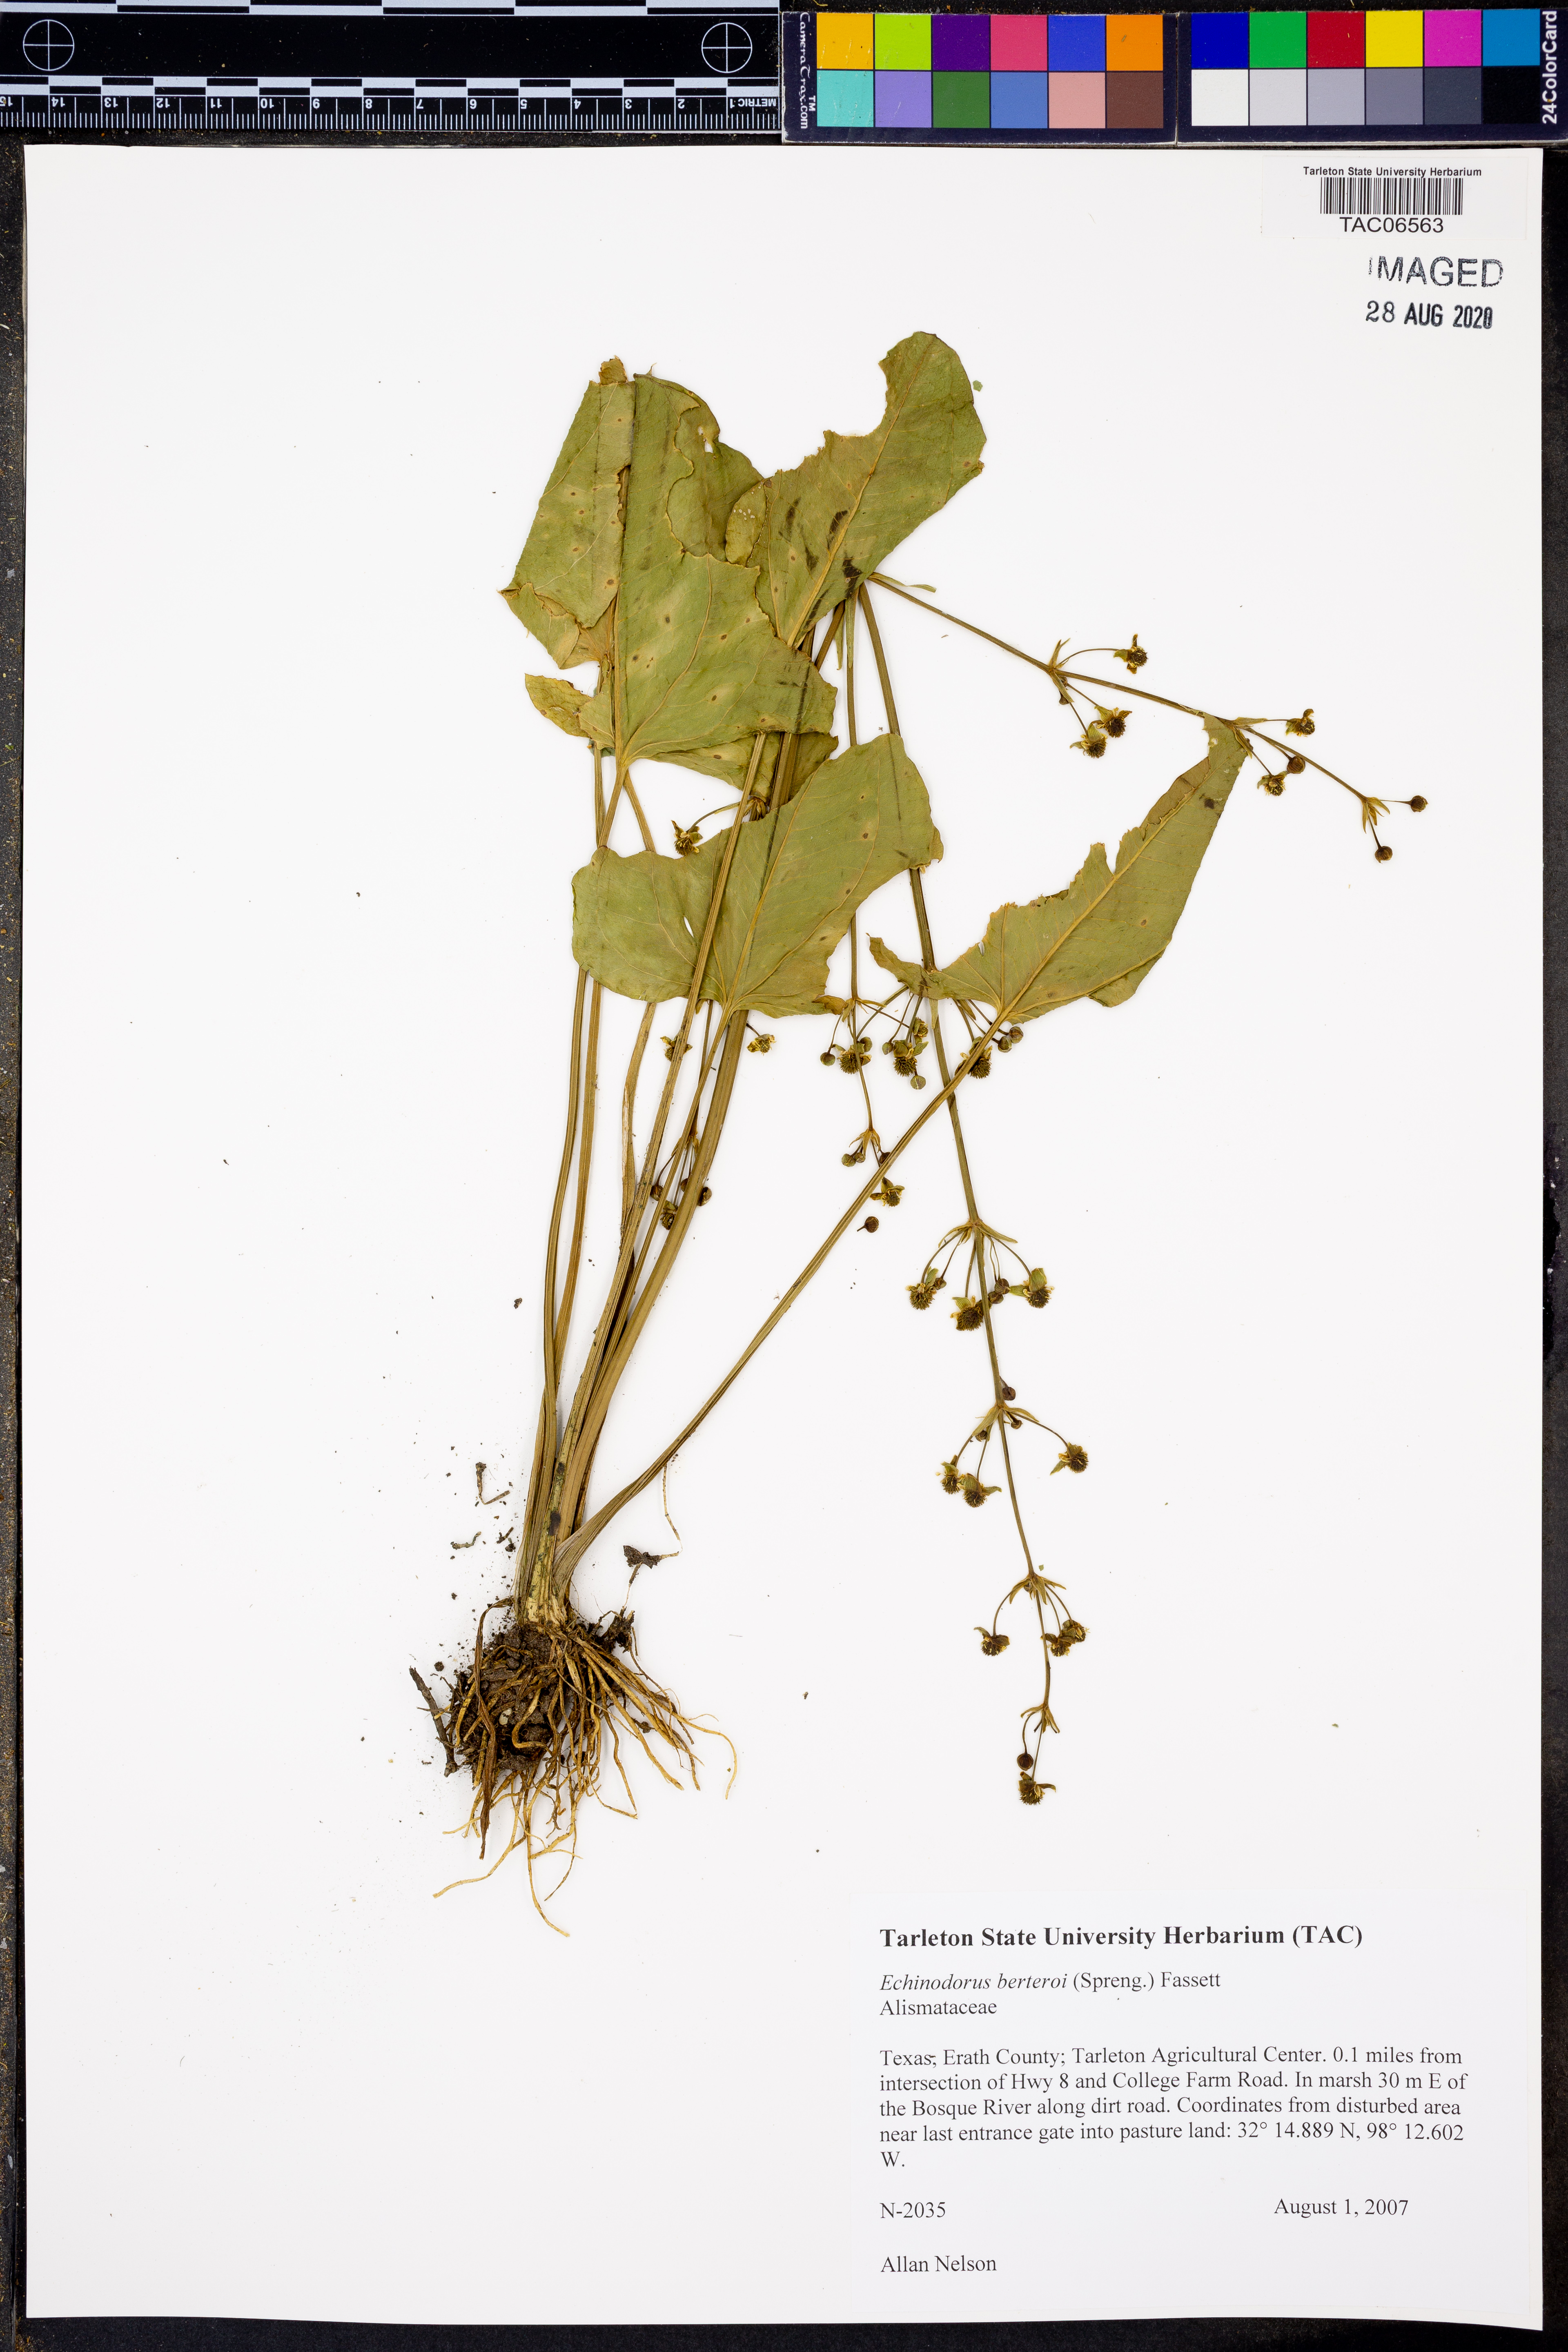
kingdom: Plantae
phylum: Tracheophyta
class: Liliopsida
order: Alismatales
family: Alismataceae
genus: Echinodorus
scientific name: Echinodorus berteroi
